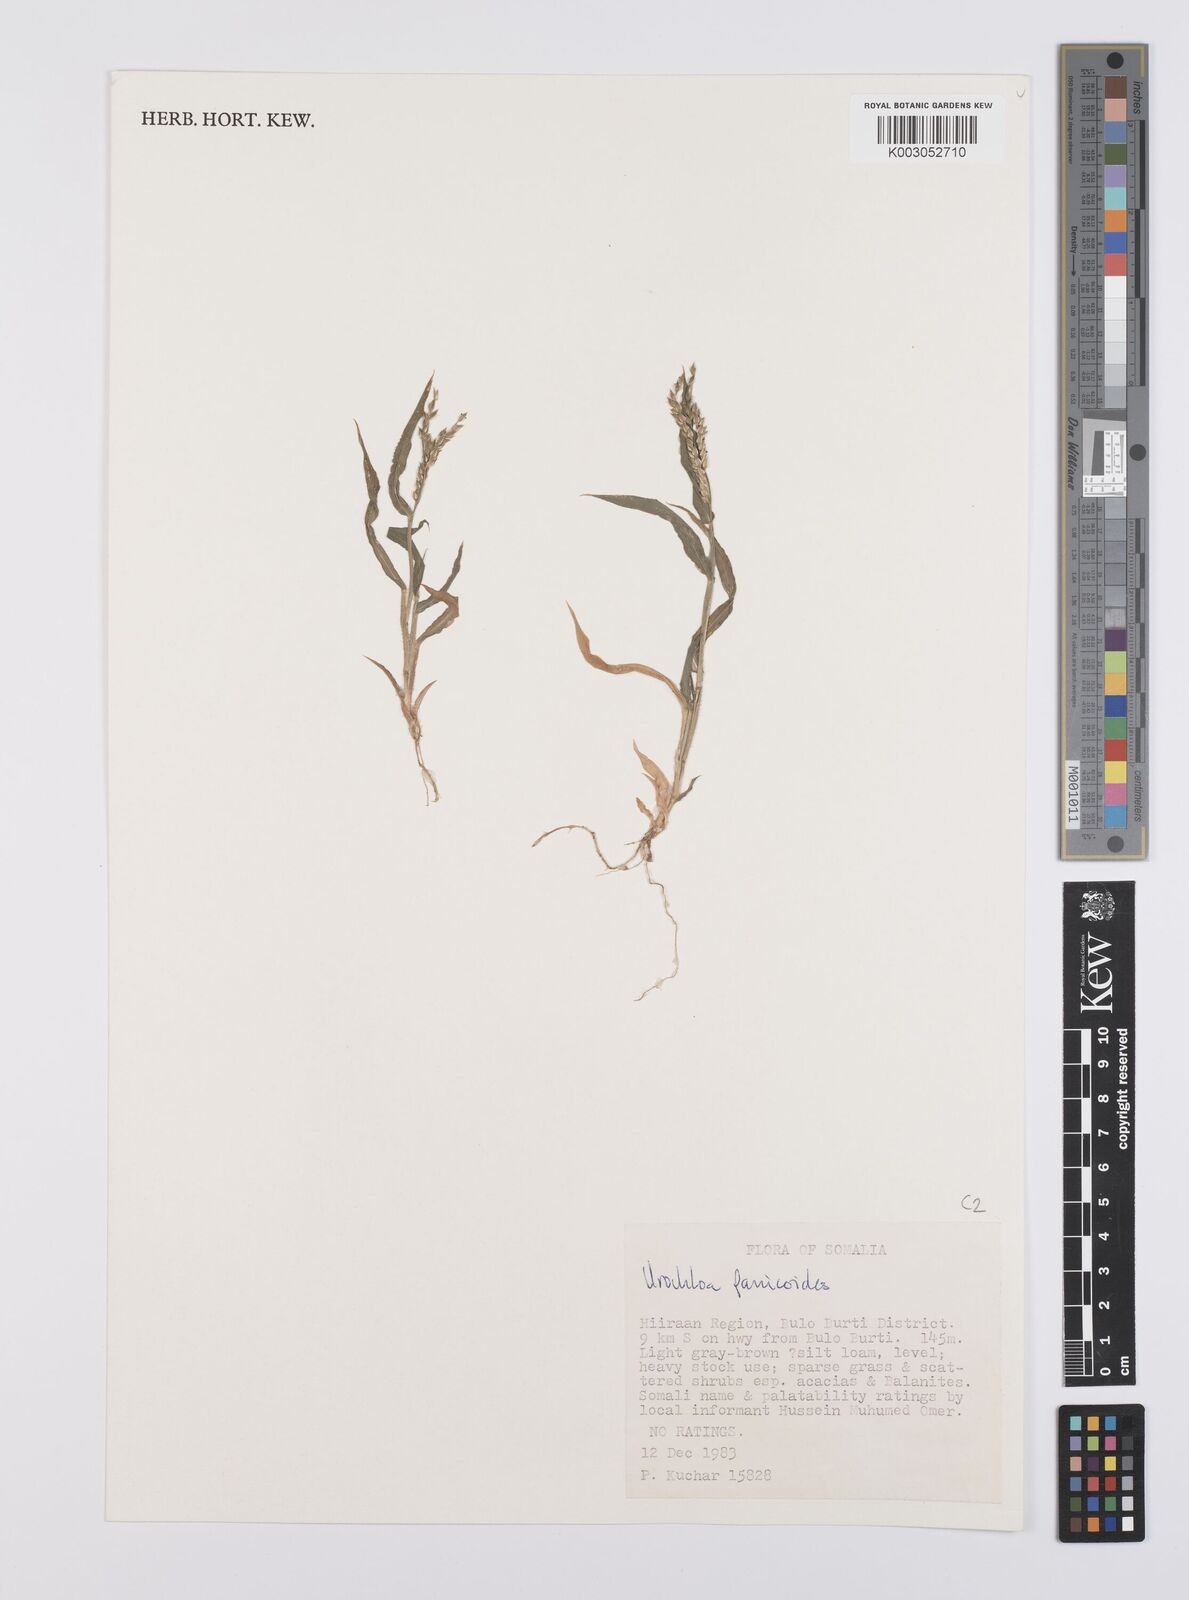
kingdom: Plantae
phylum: Tracheophyta
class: Liliopsida
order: Poales
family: Poaceae
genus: Urochloa
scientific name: Urochloa panicoides
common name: Sharp-flowered signal-grass
